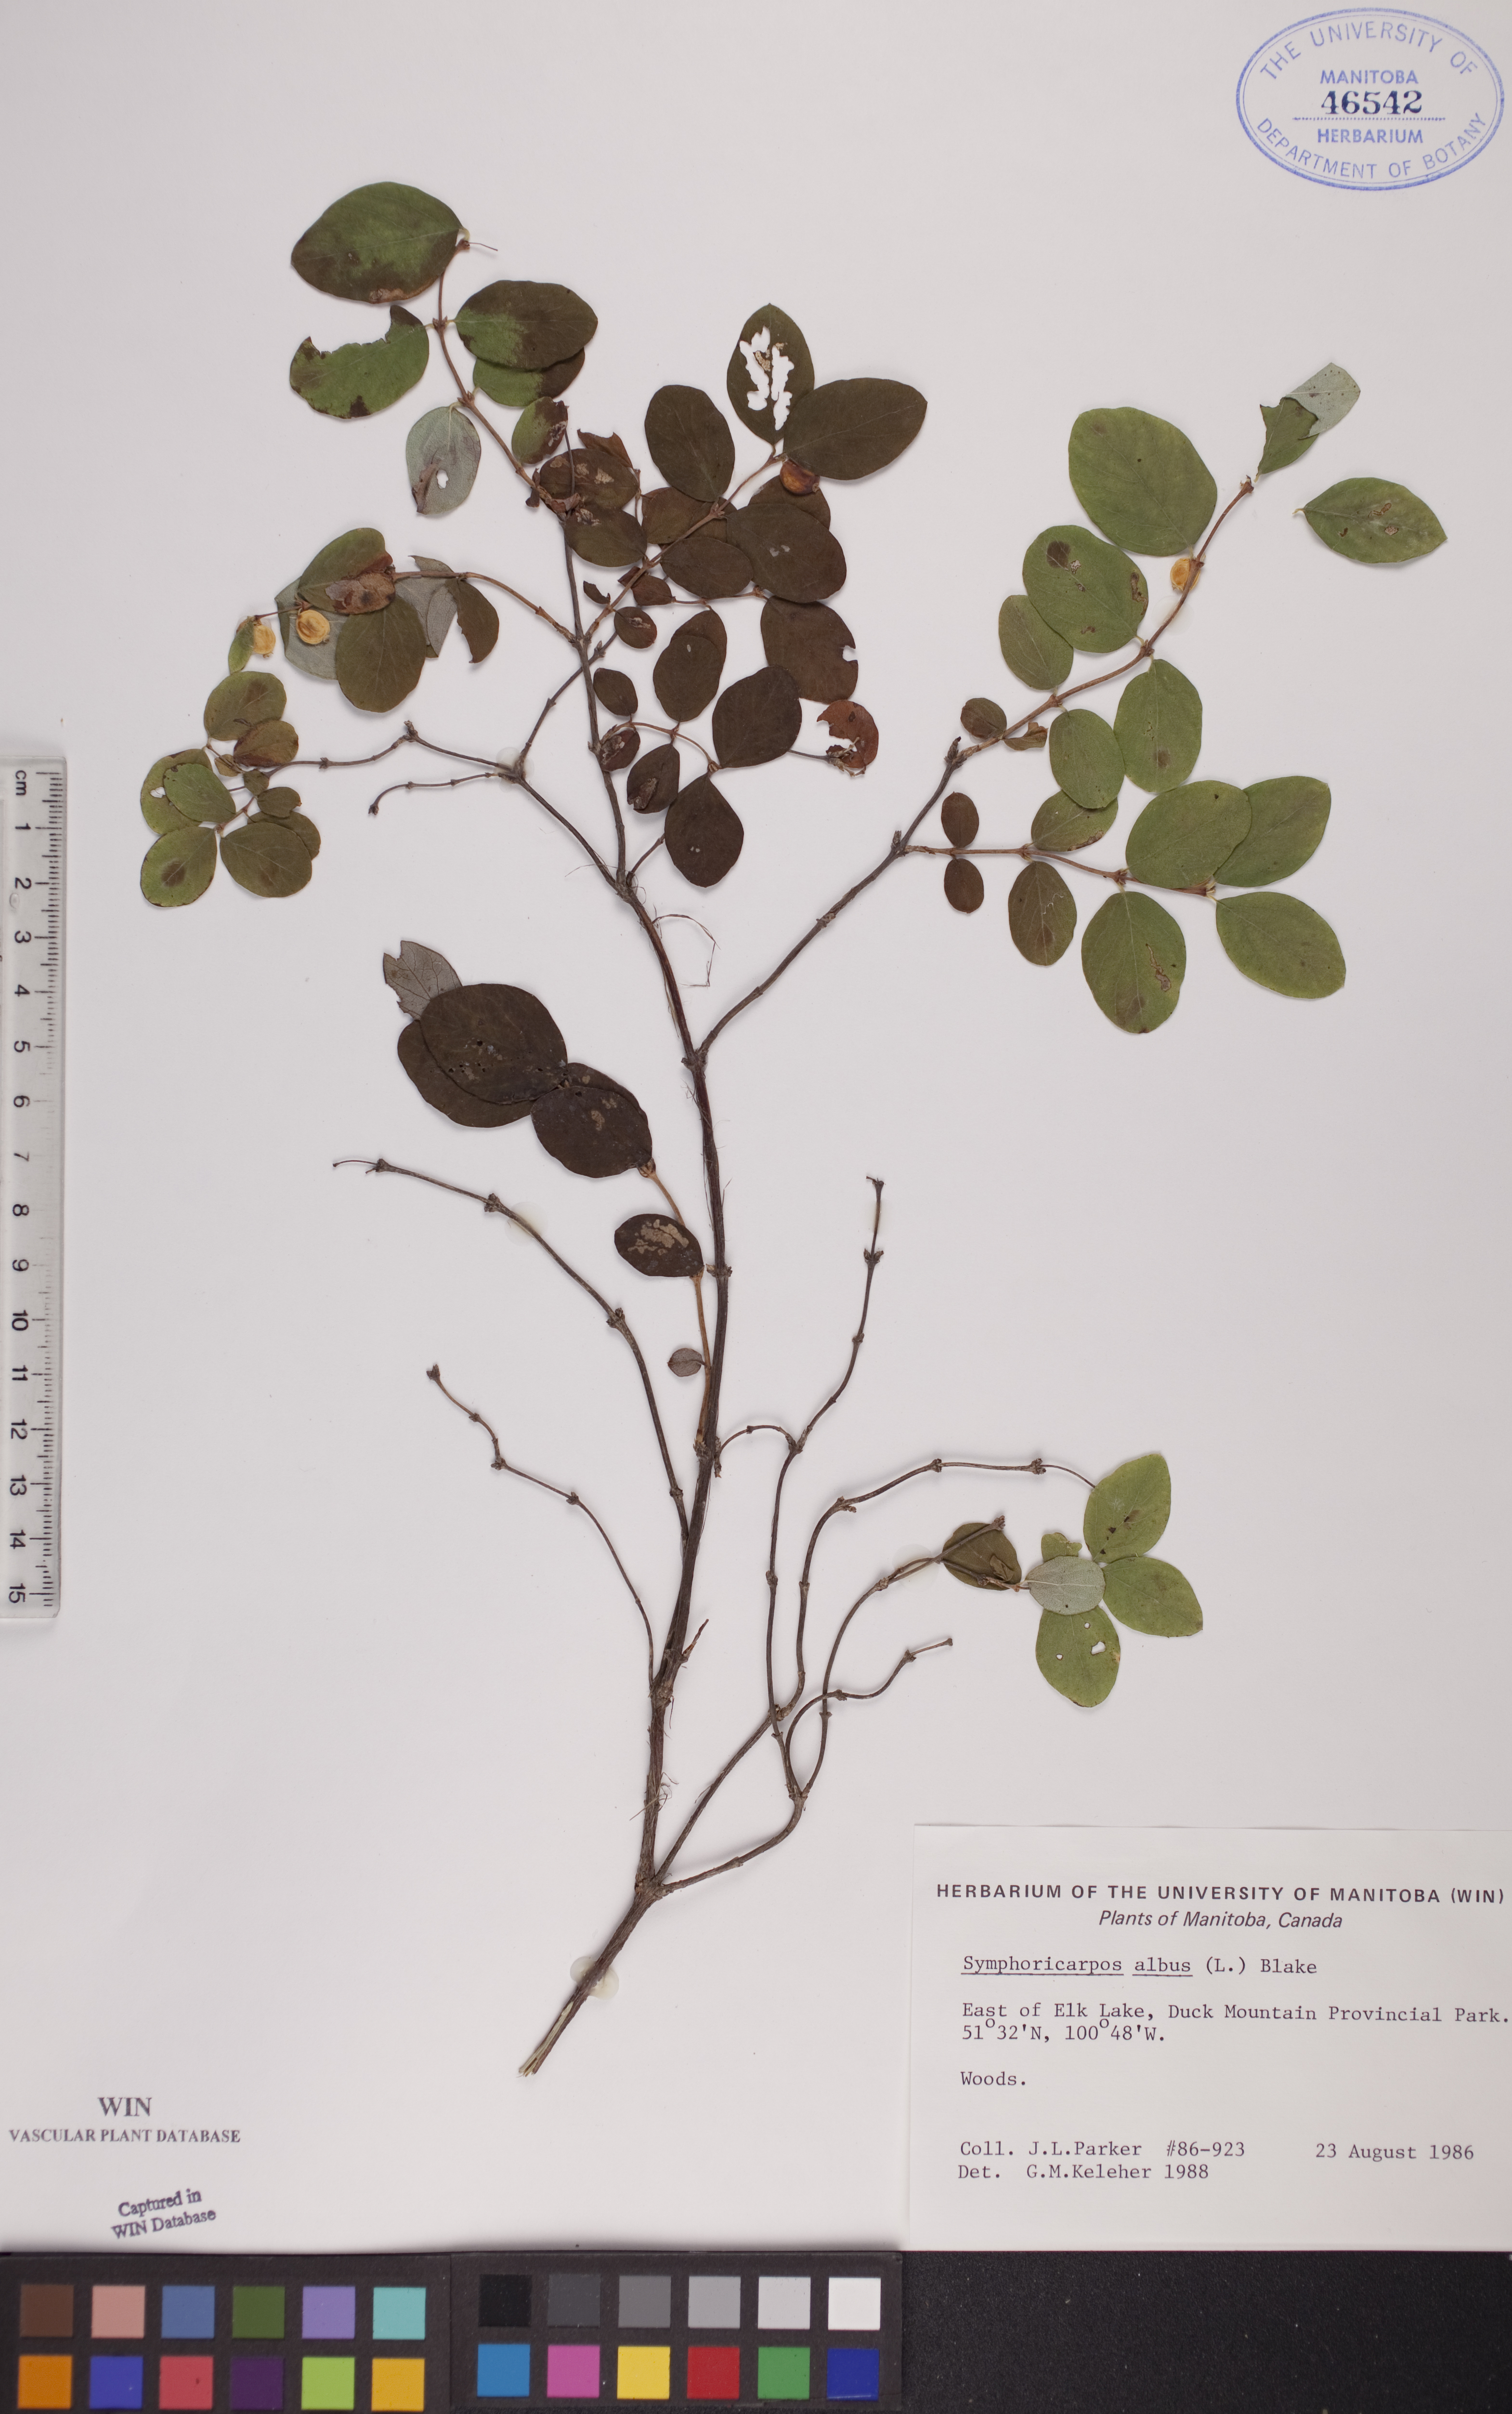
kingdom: Plantae
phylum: Tracheophyta
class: Magnoliopsida
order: Dipsacales
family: Caprifoliaceae
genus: Symphoricarpos
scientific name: Symphoricarpos albus
